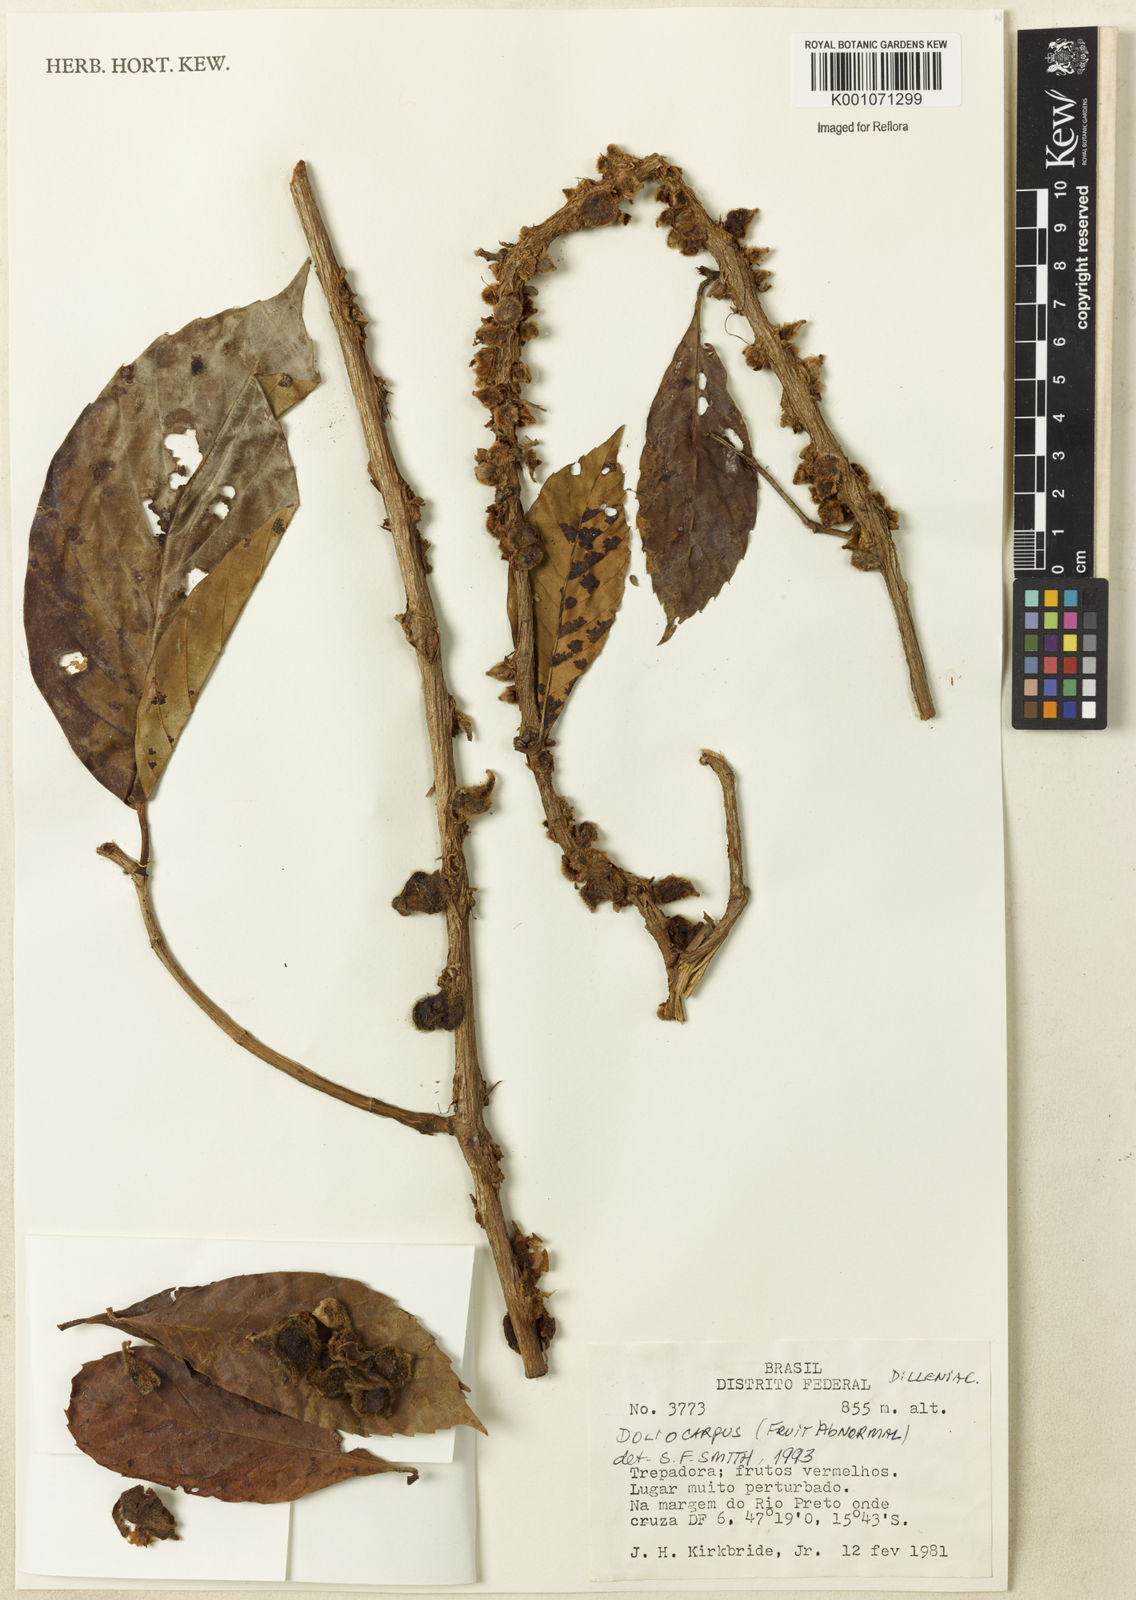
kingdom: Plantae
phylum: Tracheophyta
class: Magnoliopsida
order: Dilleniales
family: Dilleniaceae
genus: Doliocarpus
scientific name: Doliocarpus
